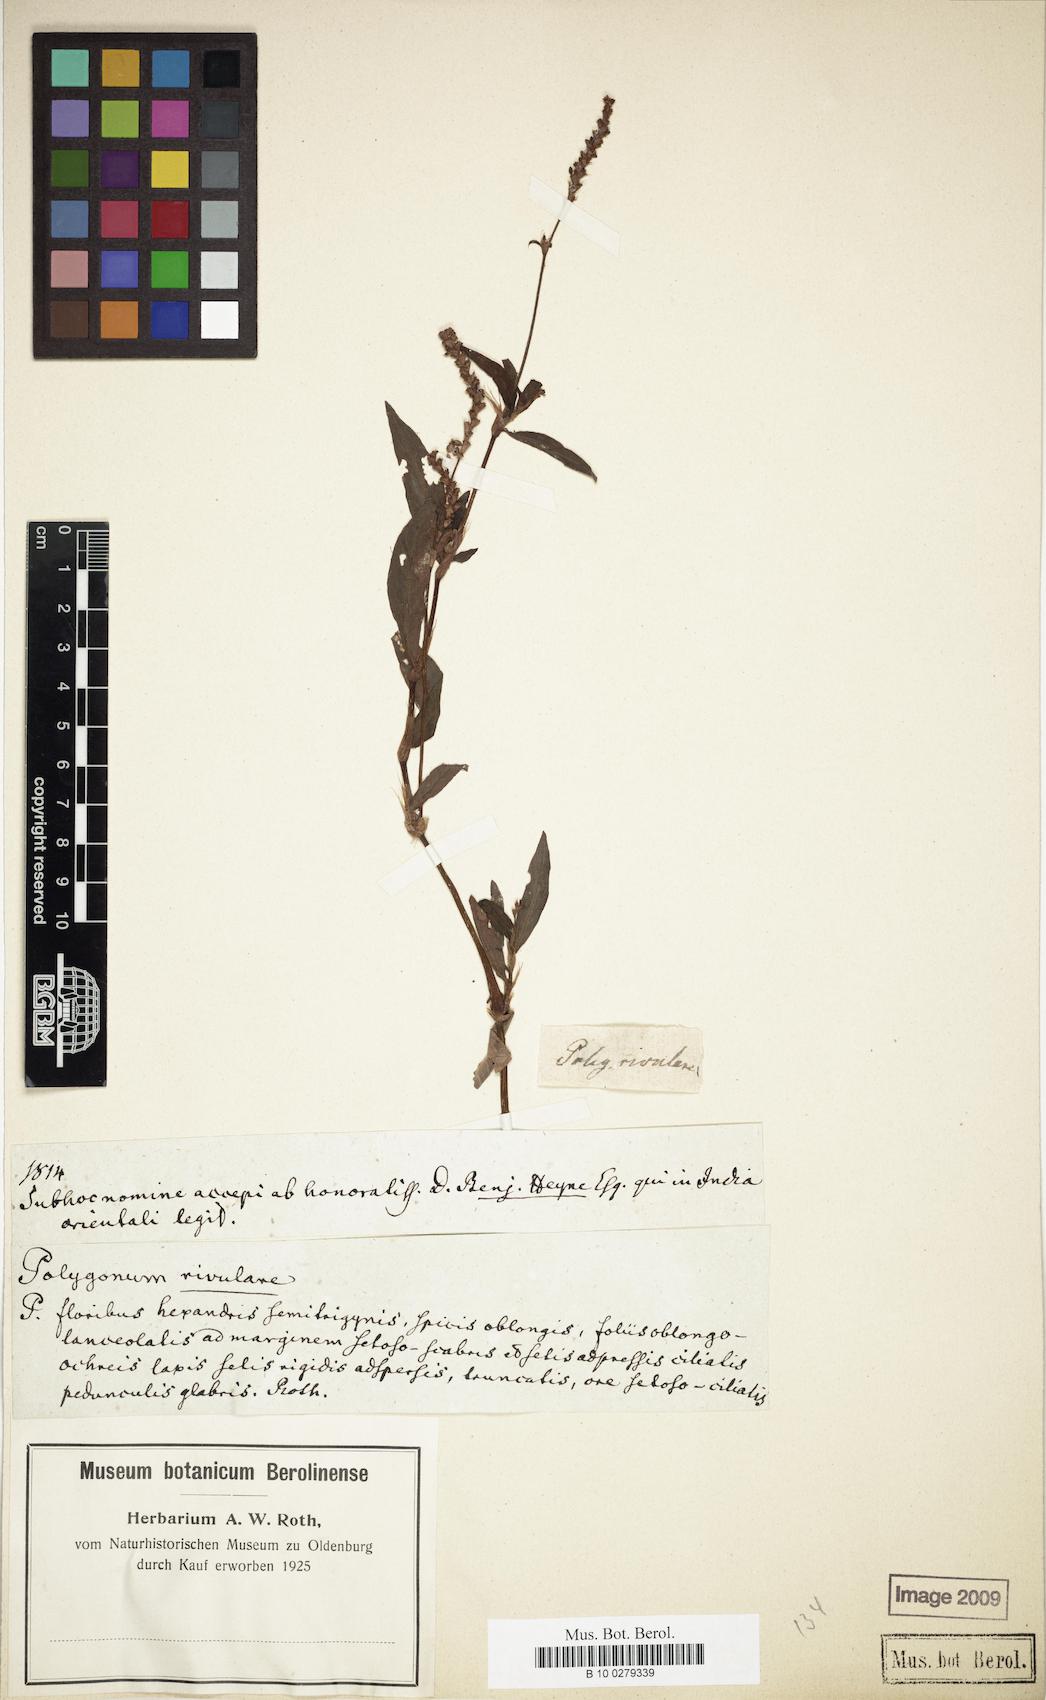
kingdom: Plantae
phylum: Tracheophyta
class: Magnoliopsida
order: Caryophyllales
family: Polygonaceae
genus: Persicaria
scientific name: Persicaria maculosa
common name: Redshank
